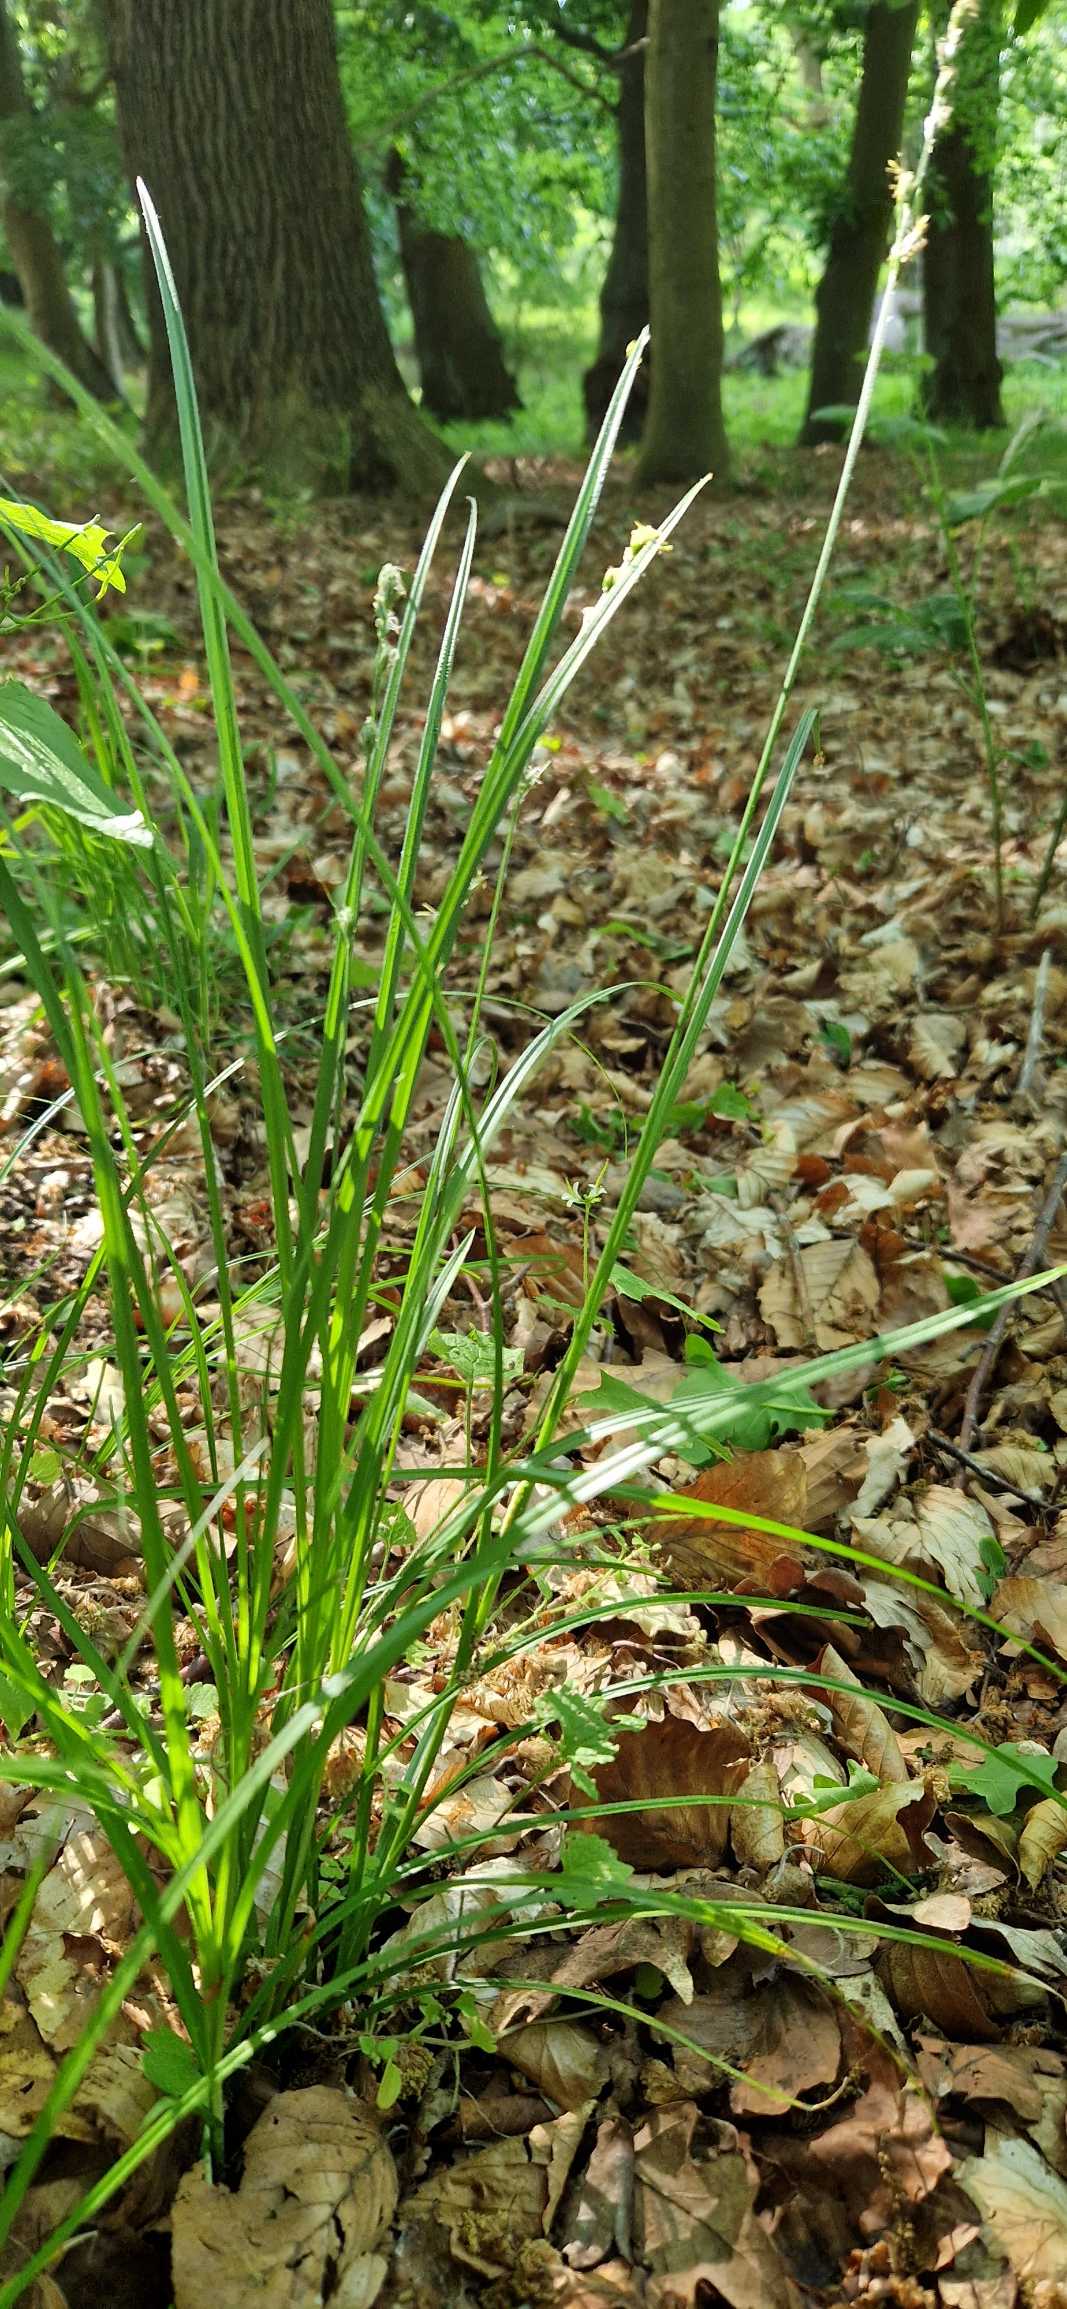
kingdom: Plantae
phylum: Tracheophyta
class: Liliopsida
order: Poales
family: Cyperaceae
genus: Carex
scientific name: Carex divulsa
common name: Mellembrudt star
